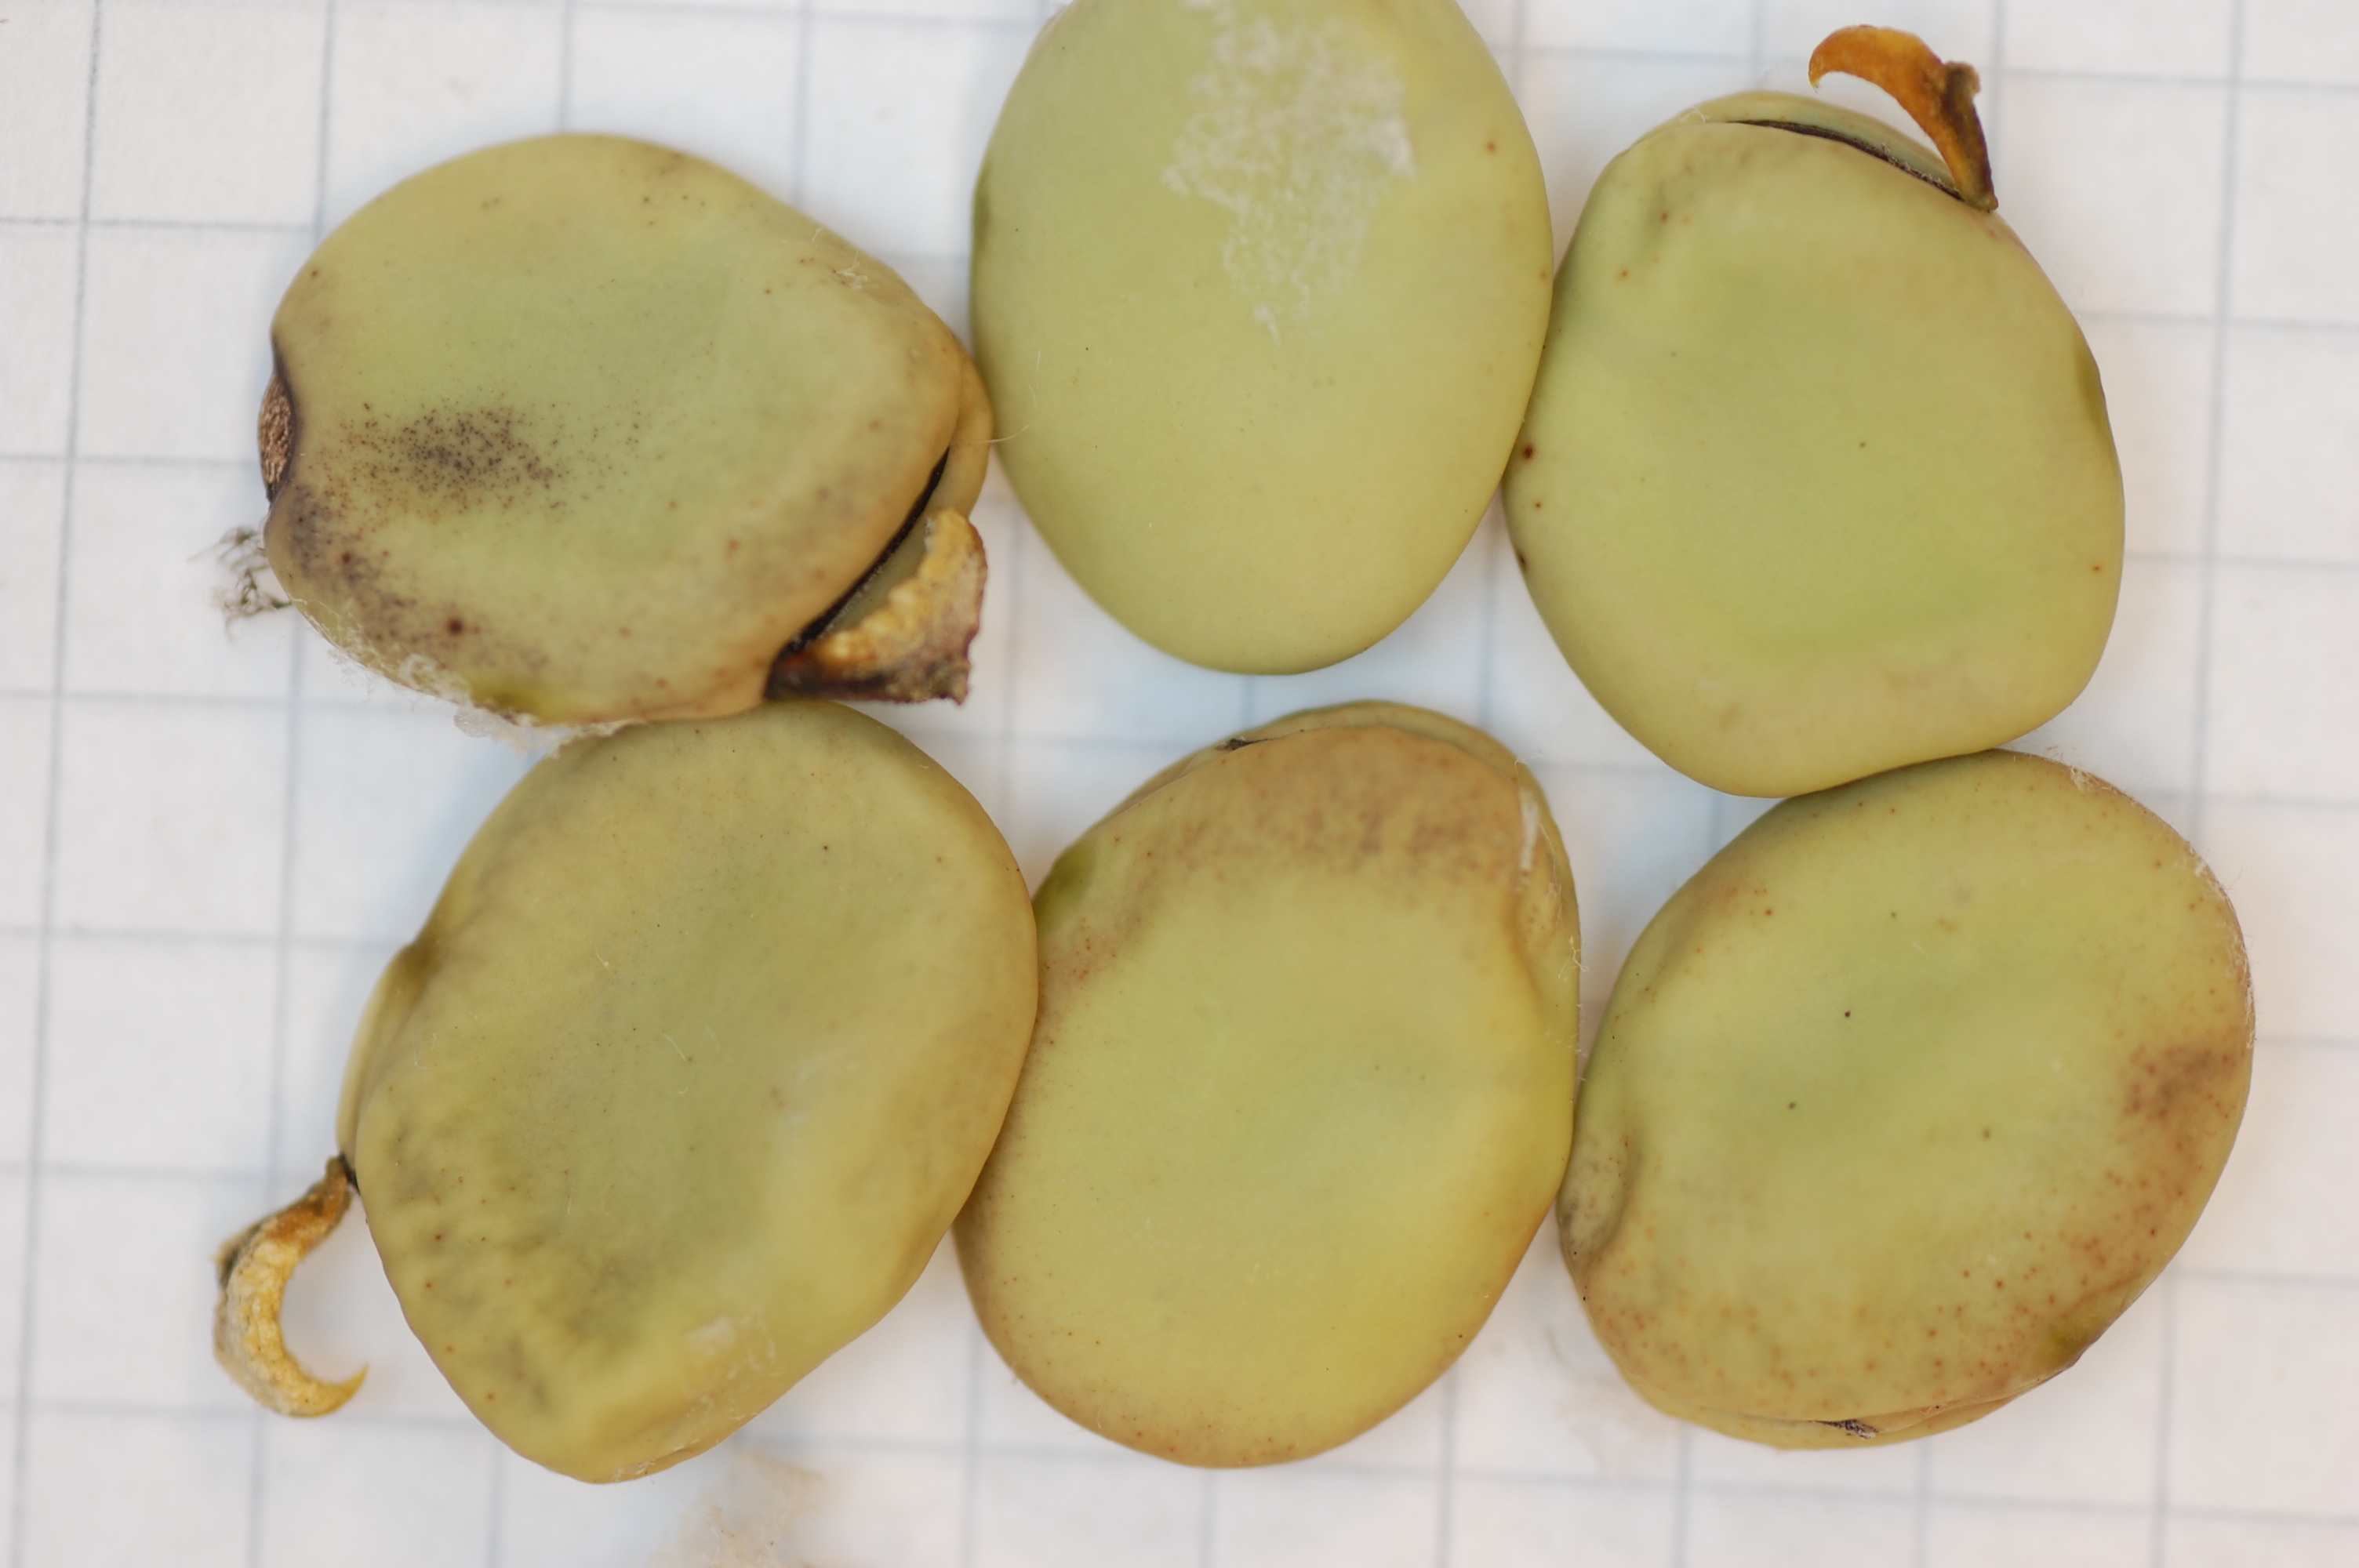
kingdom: Plantae
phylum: Tracheophyta
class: Magnoliopsida
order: Fabales
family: Fabaceae
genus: Vicia
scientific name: Vicia faba
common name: Broad bean
